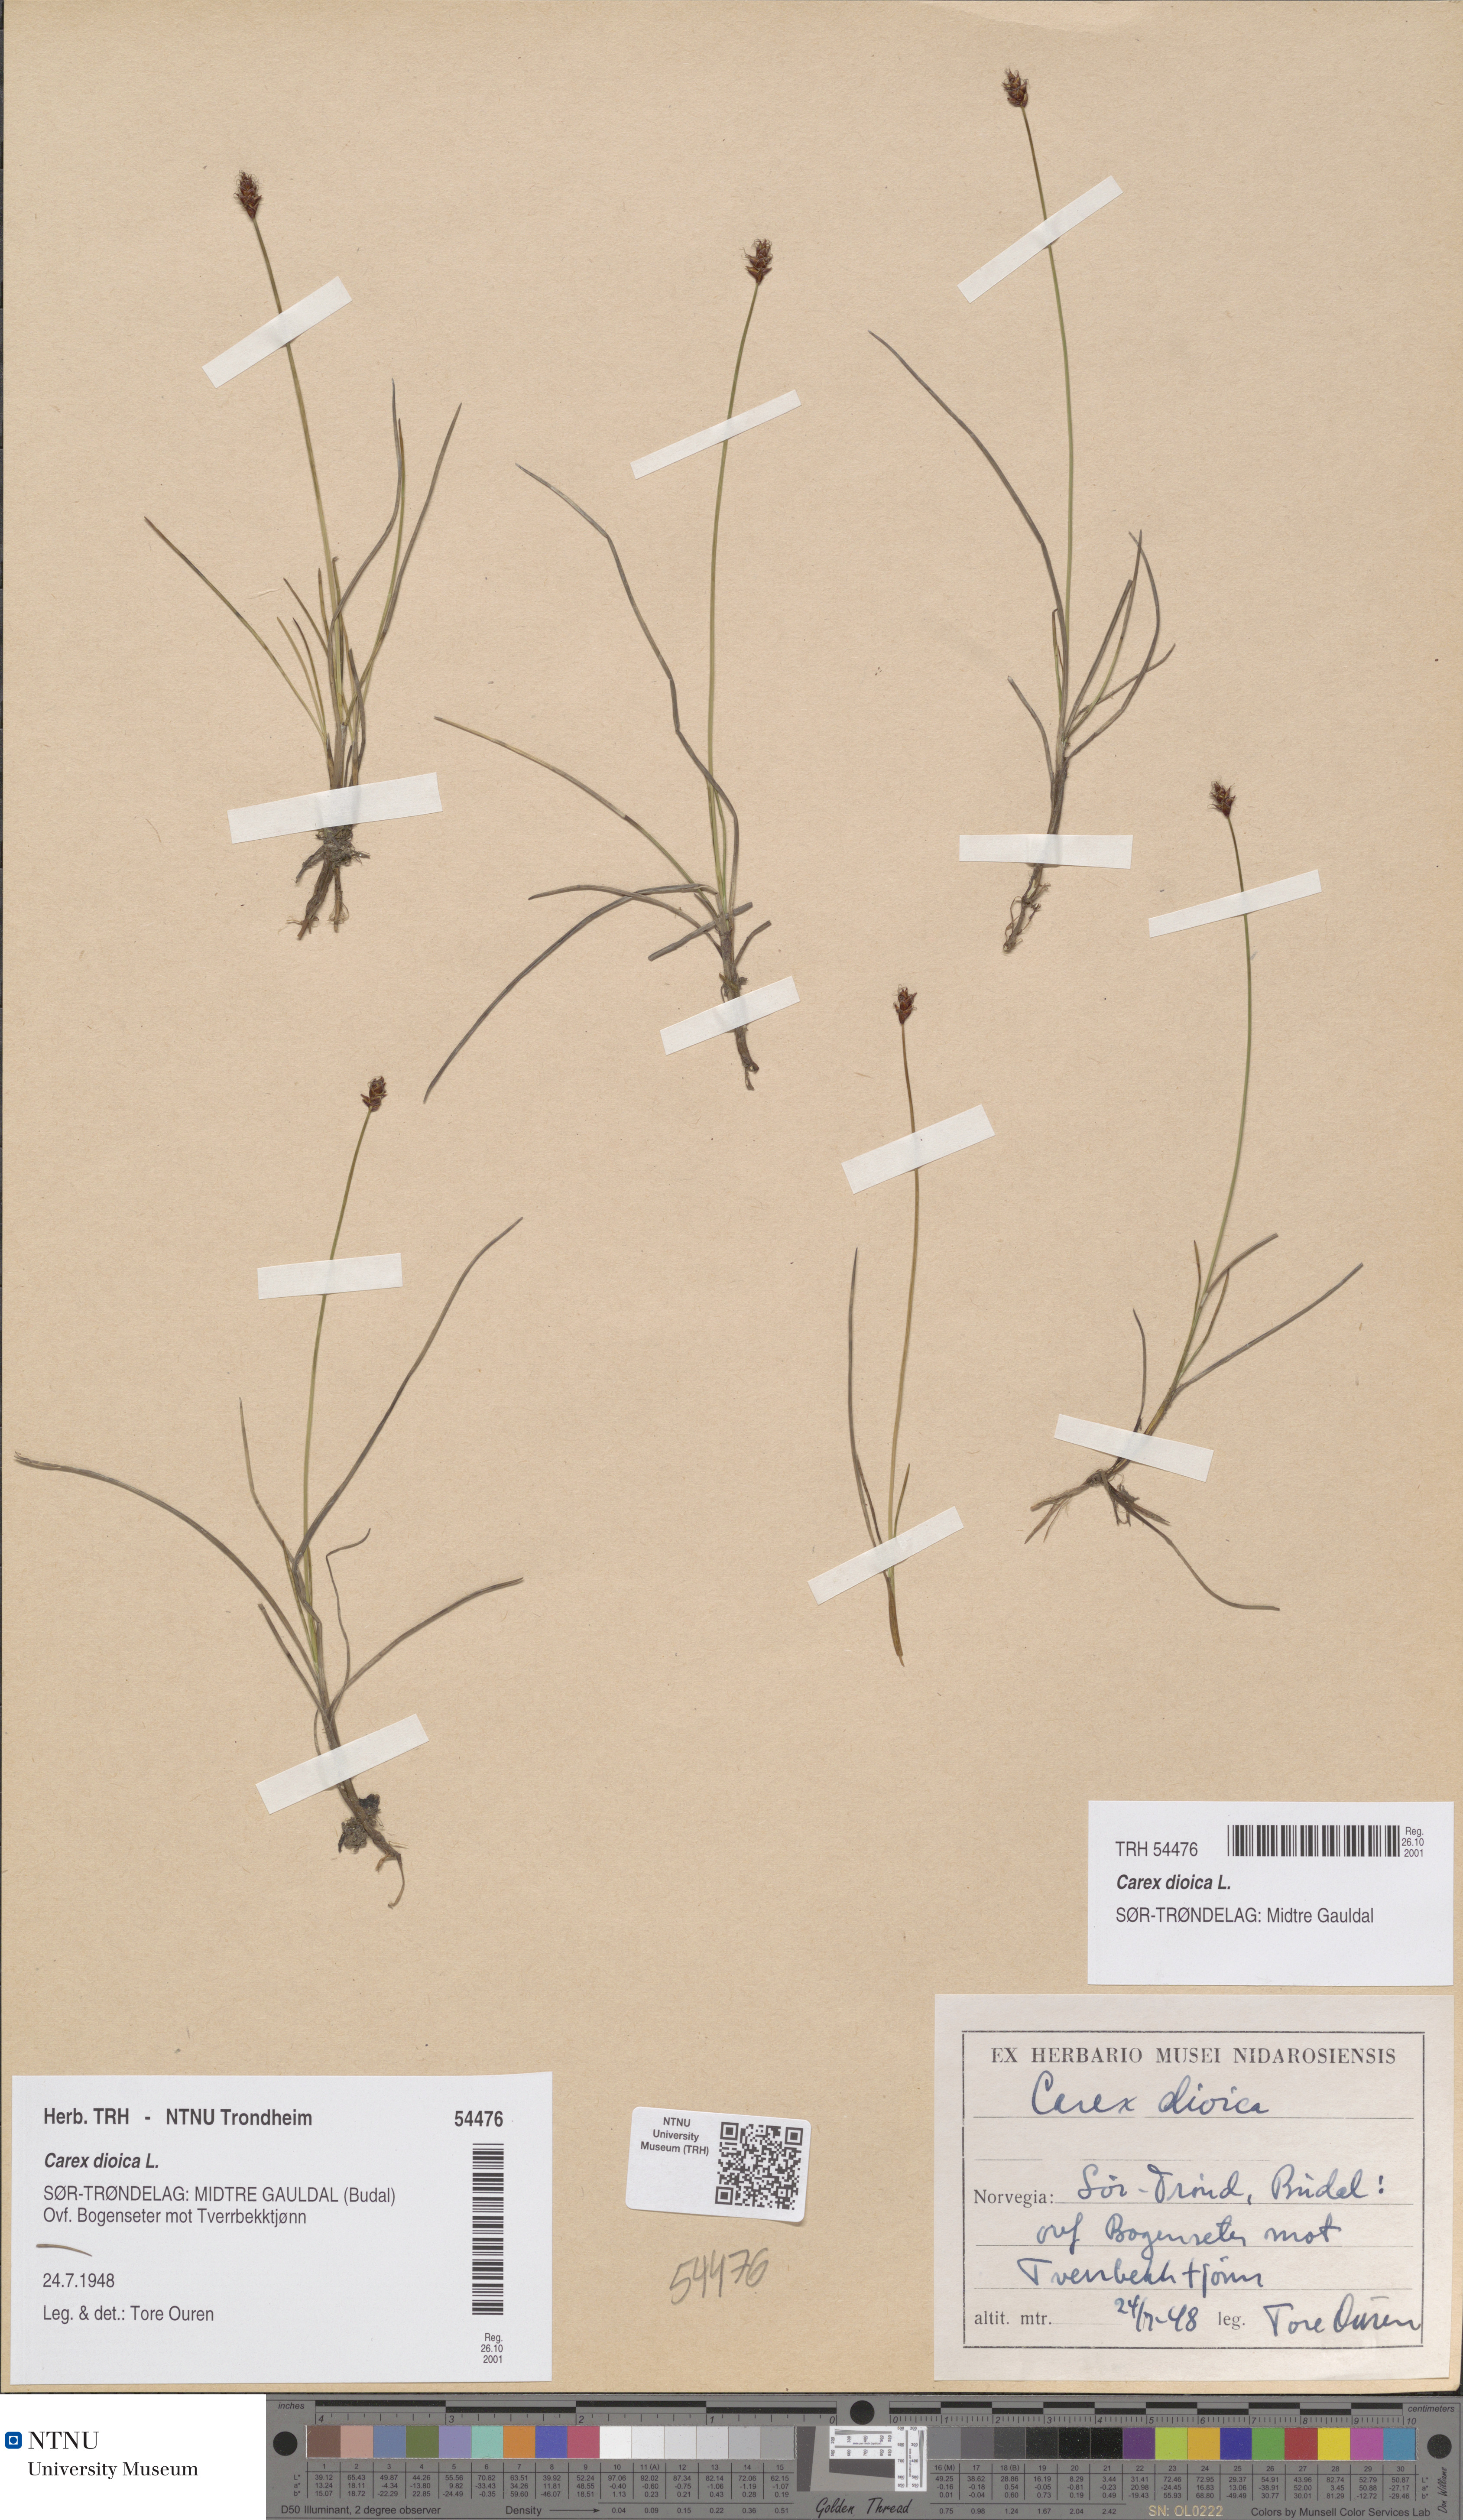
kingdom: Plantae
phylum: Tracheophyta
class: Liliopsida
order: Poales
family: Cyperaceae
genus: Carex
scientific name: Carex dioica
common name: Dioecious sedge
